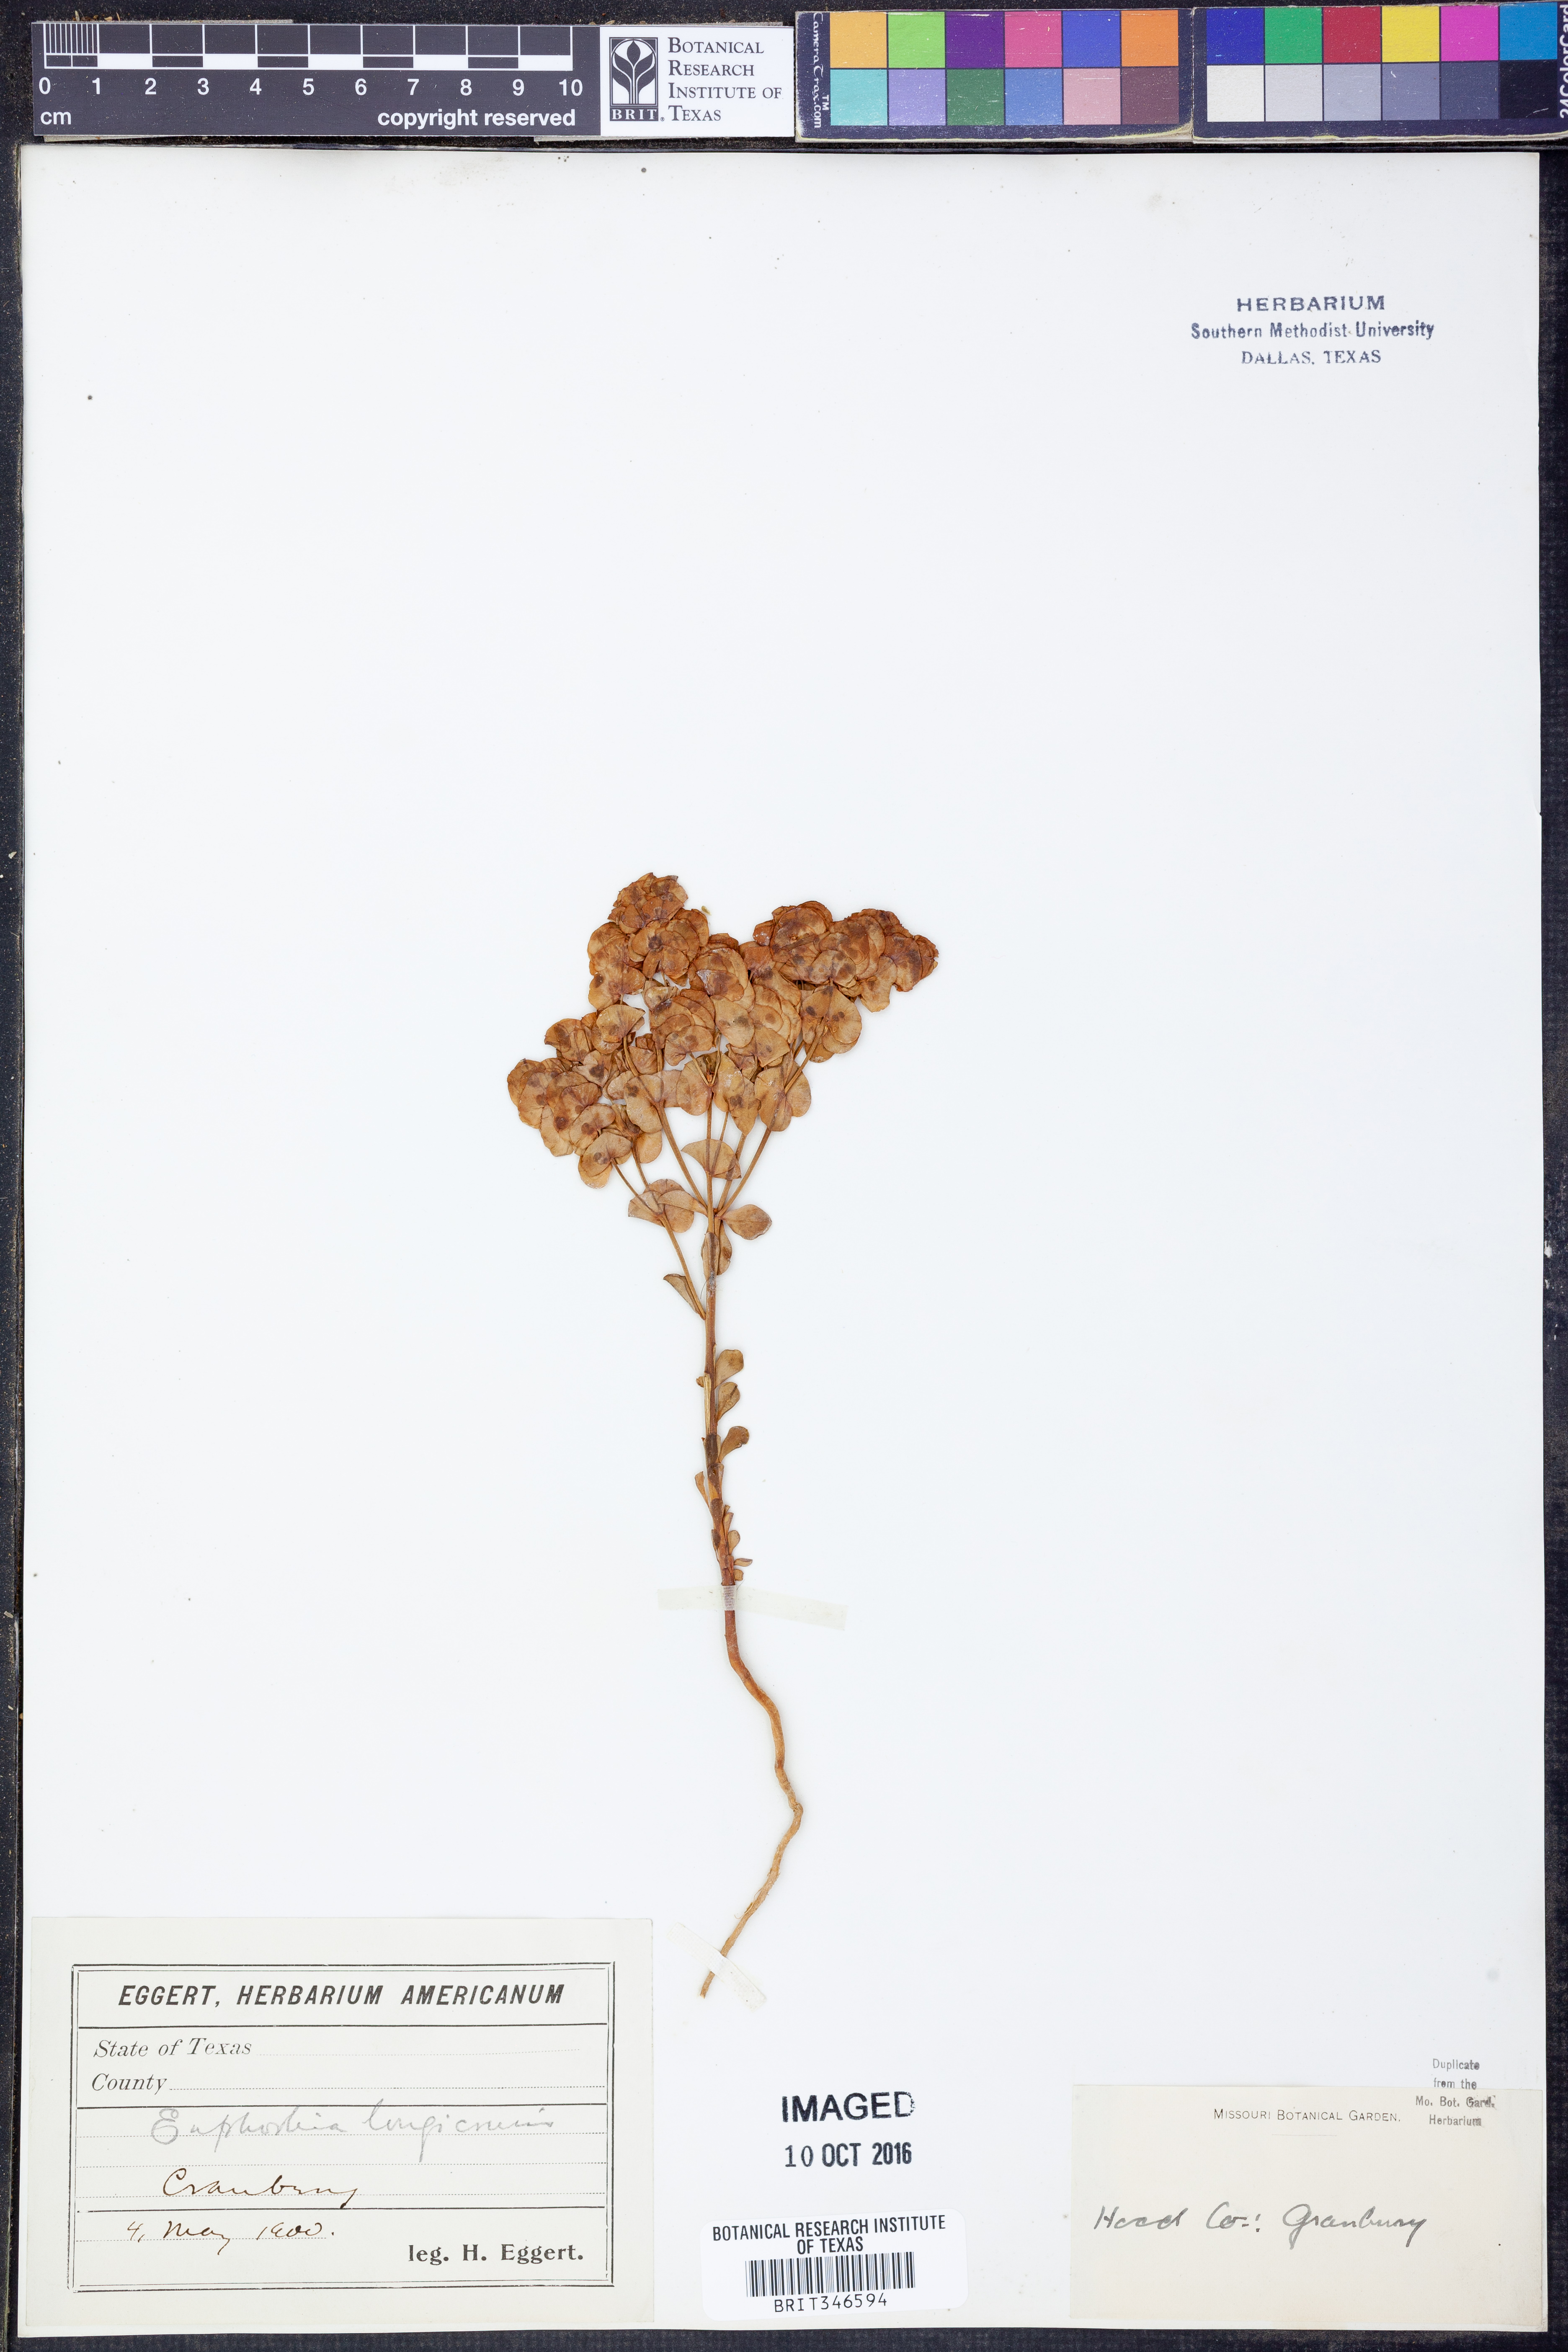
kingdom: Plantae
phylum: Tracheophyta
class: Magnoliopsida
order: Malpighiales
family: Euphorbiaceae
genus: Euphorbia
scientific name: Euphorbia longicruris
